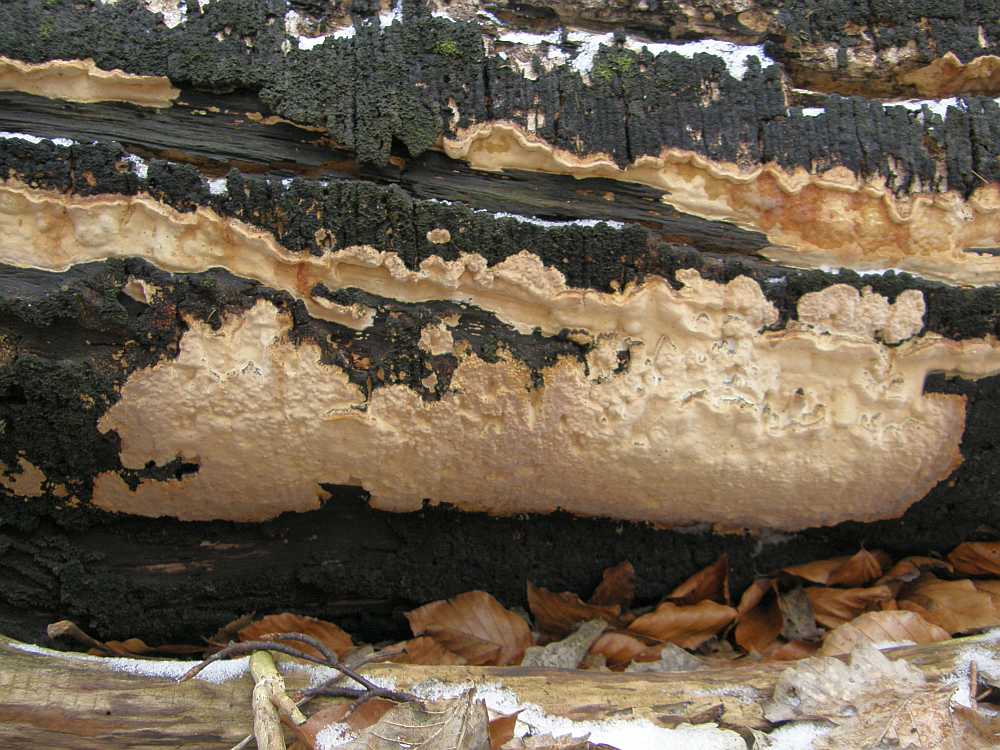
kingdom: Fungi
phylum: Basidiomycota
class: Agaricomycetes
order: Russulales
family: Peniophoraceae
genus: Scytinostroma
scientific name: Scytinostroma hemidichophyticum
